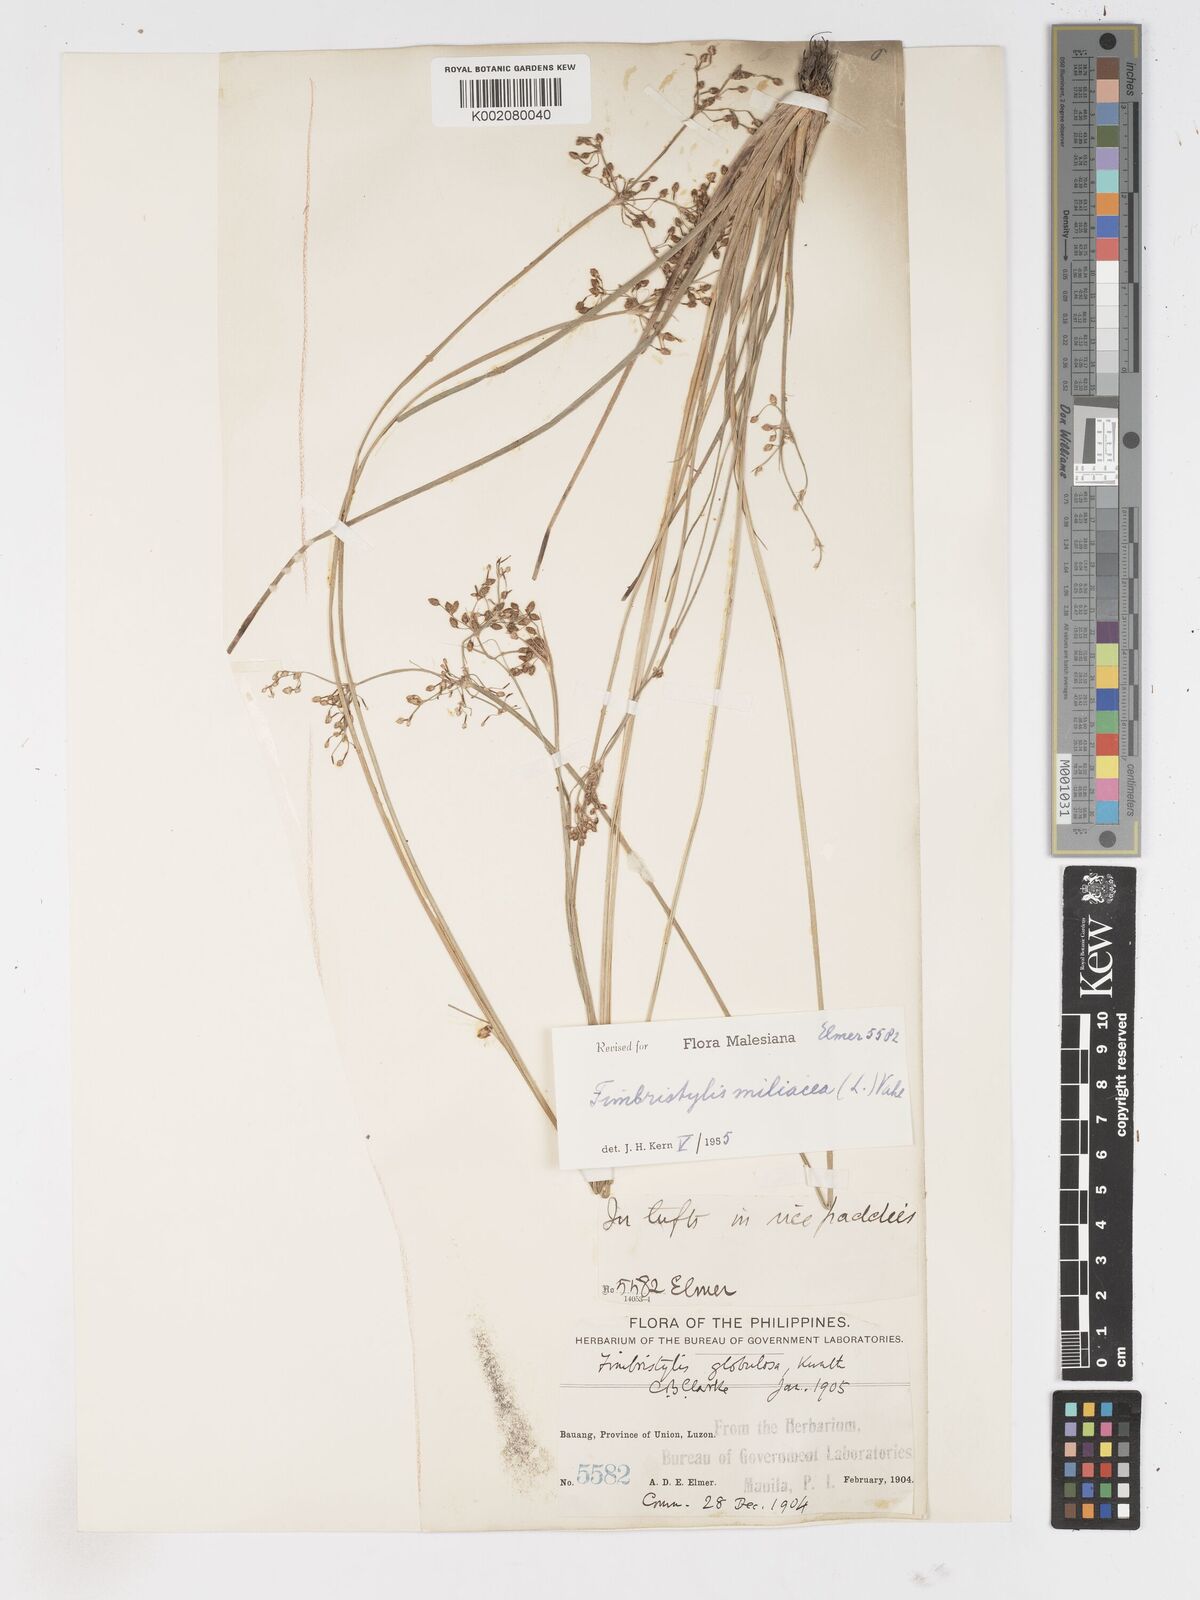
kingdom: Plantae
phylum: Tracheophyta
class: Liliopsida
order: Poales
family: Cyperaceae
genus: Fimbristylis
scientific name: Fimbristylis littoralis
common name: Fimbry
